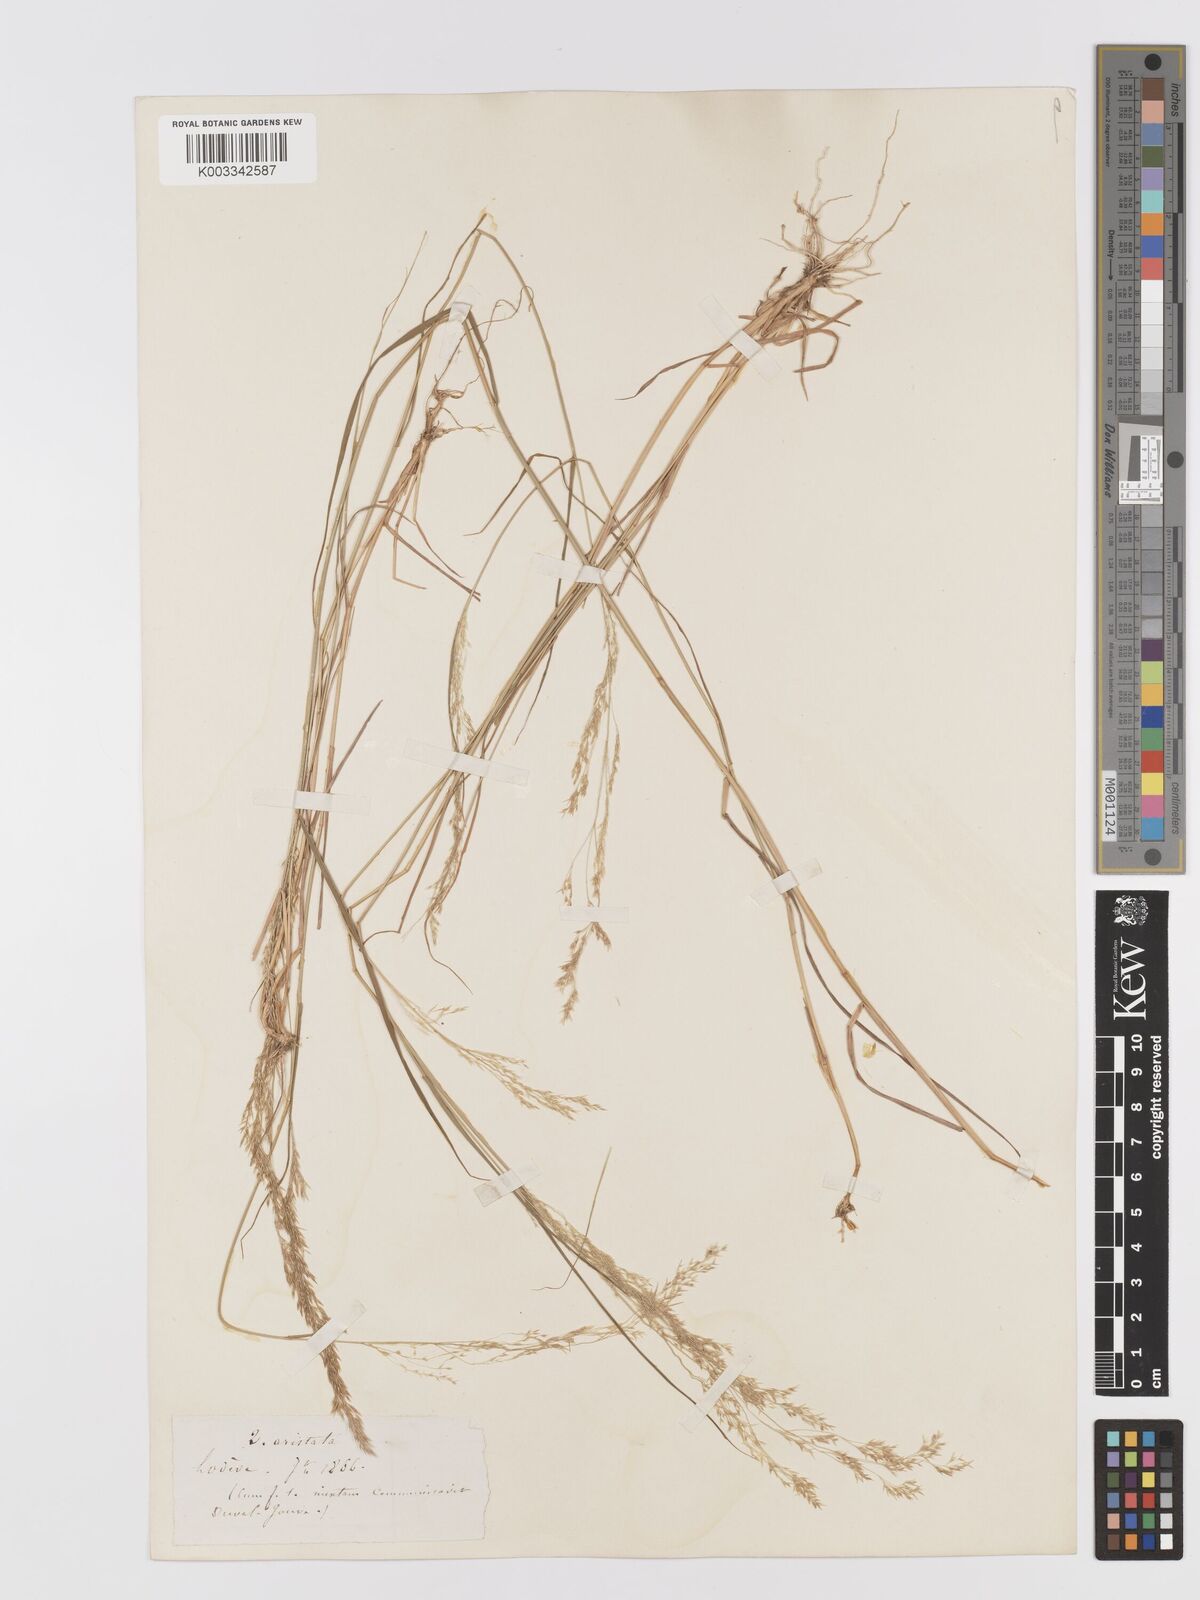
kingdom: Plantae
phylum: Tracheophyta
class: Liliopsida
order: Poales
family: Poaceae
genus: Agrostis
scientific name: Agrostis
